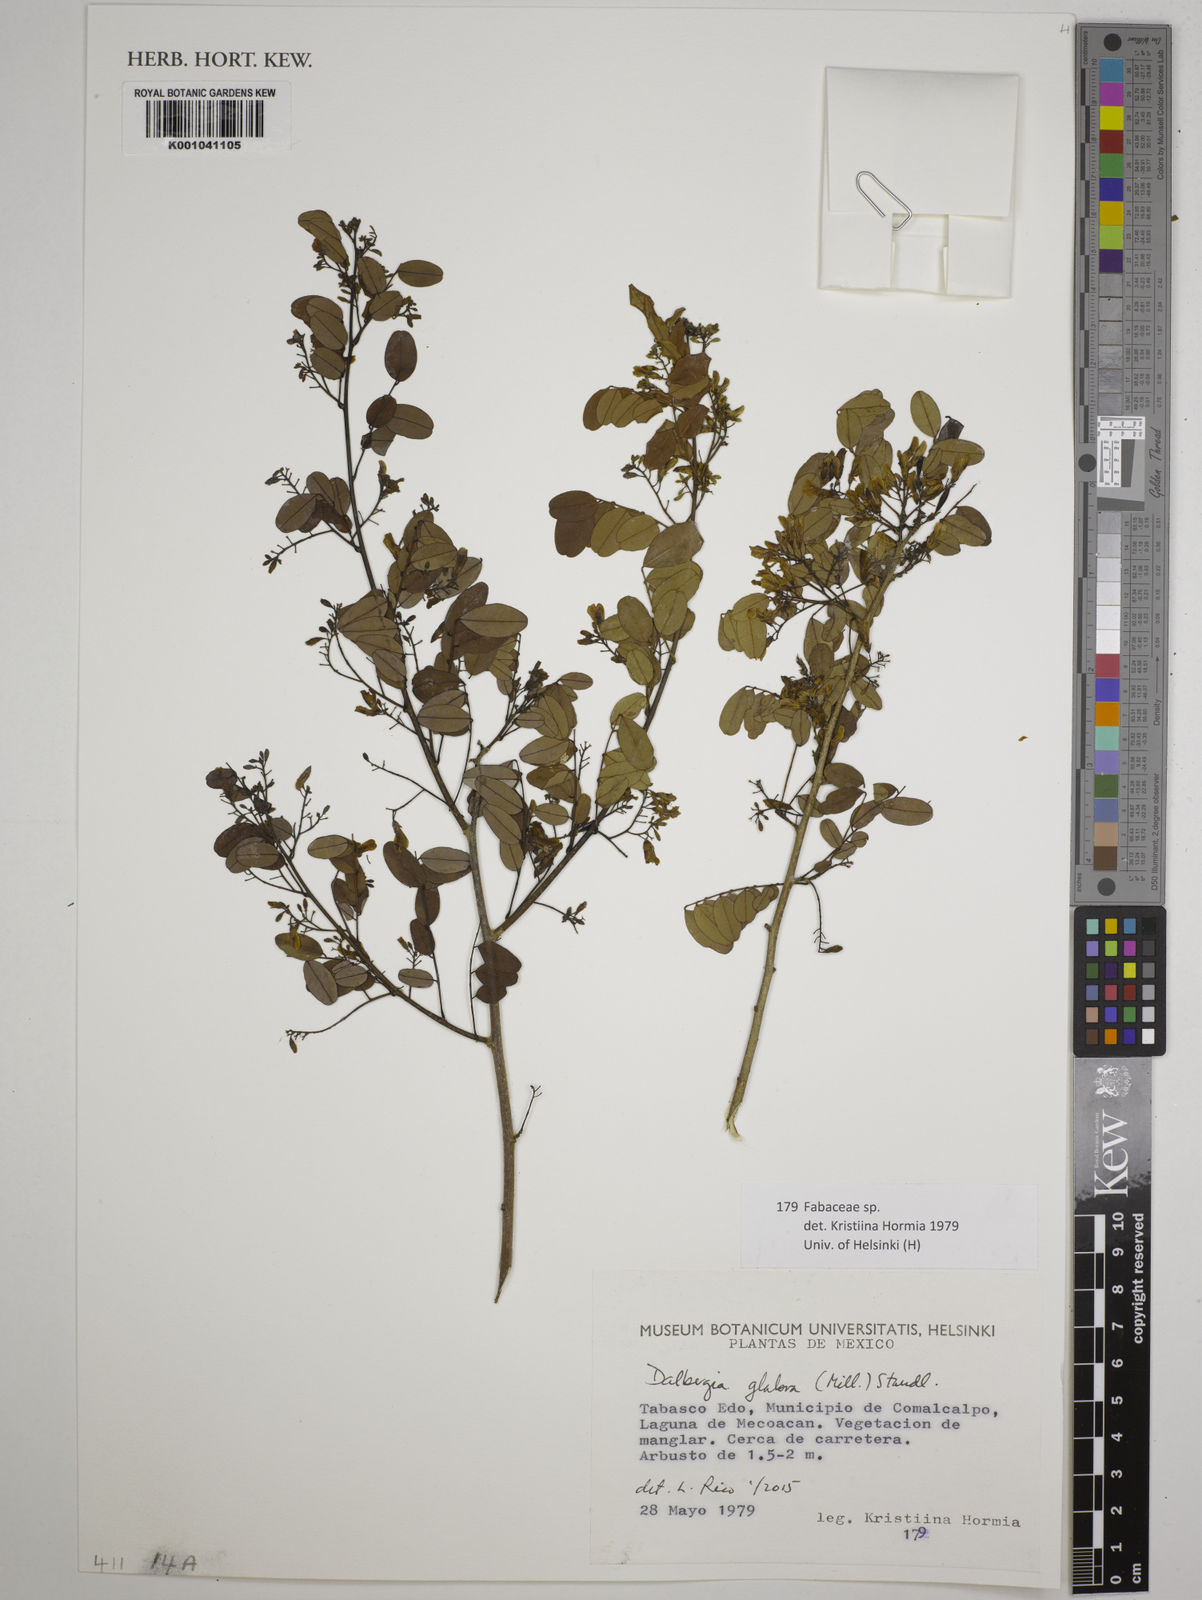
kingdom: Plantae
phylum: Tracheophyta
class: Magnoliopsida
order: Fabales
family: Fabaceae
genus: Dalbergia
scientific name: Dalbergia glabra
